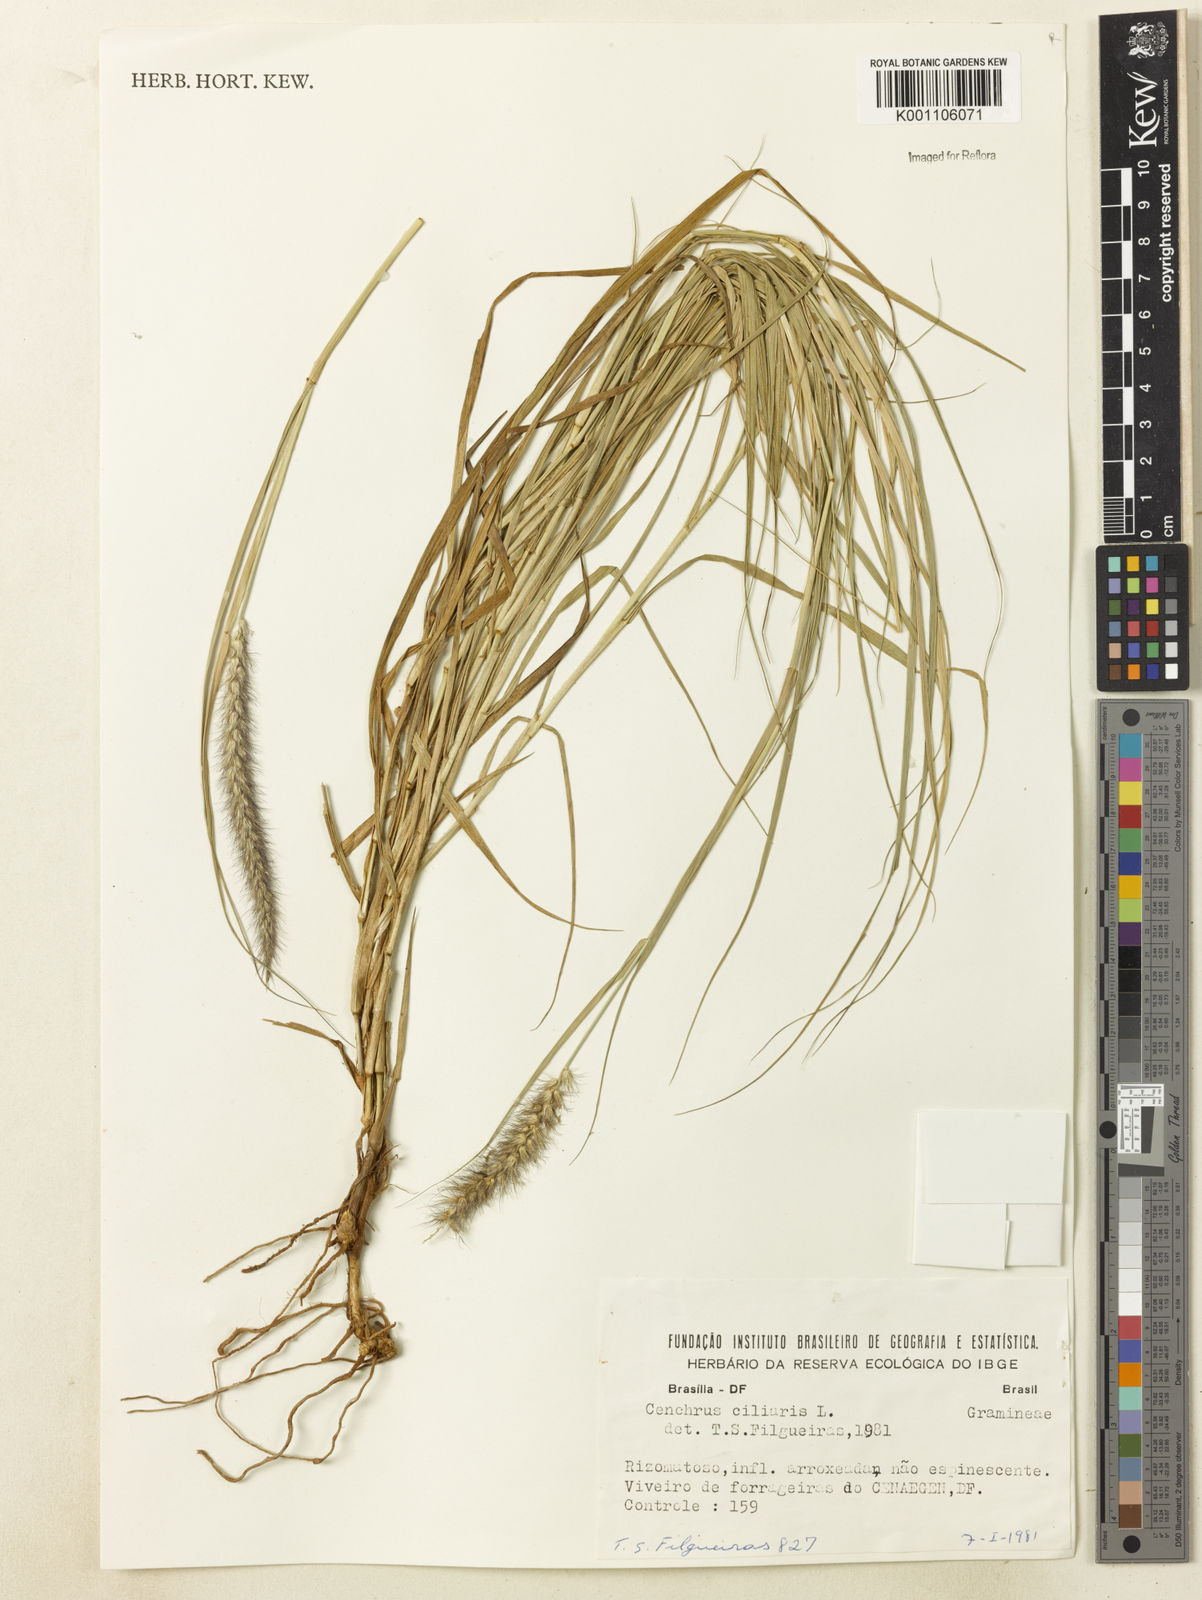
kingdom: Plantae
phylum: Tracheophyta
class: Liliopsida
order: Poales
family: Poaceae
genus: Cenchrus
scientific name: Cenchrus ciliaris
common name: Buffelgrass
